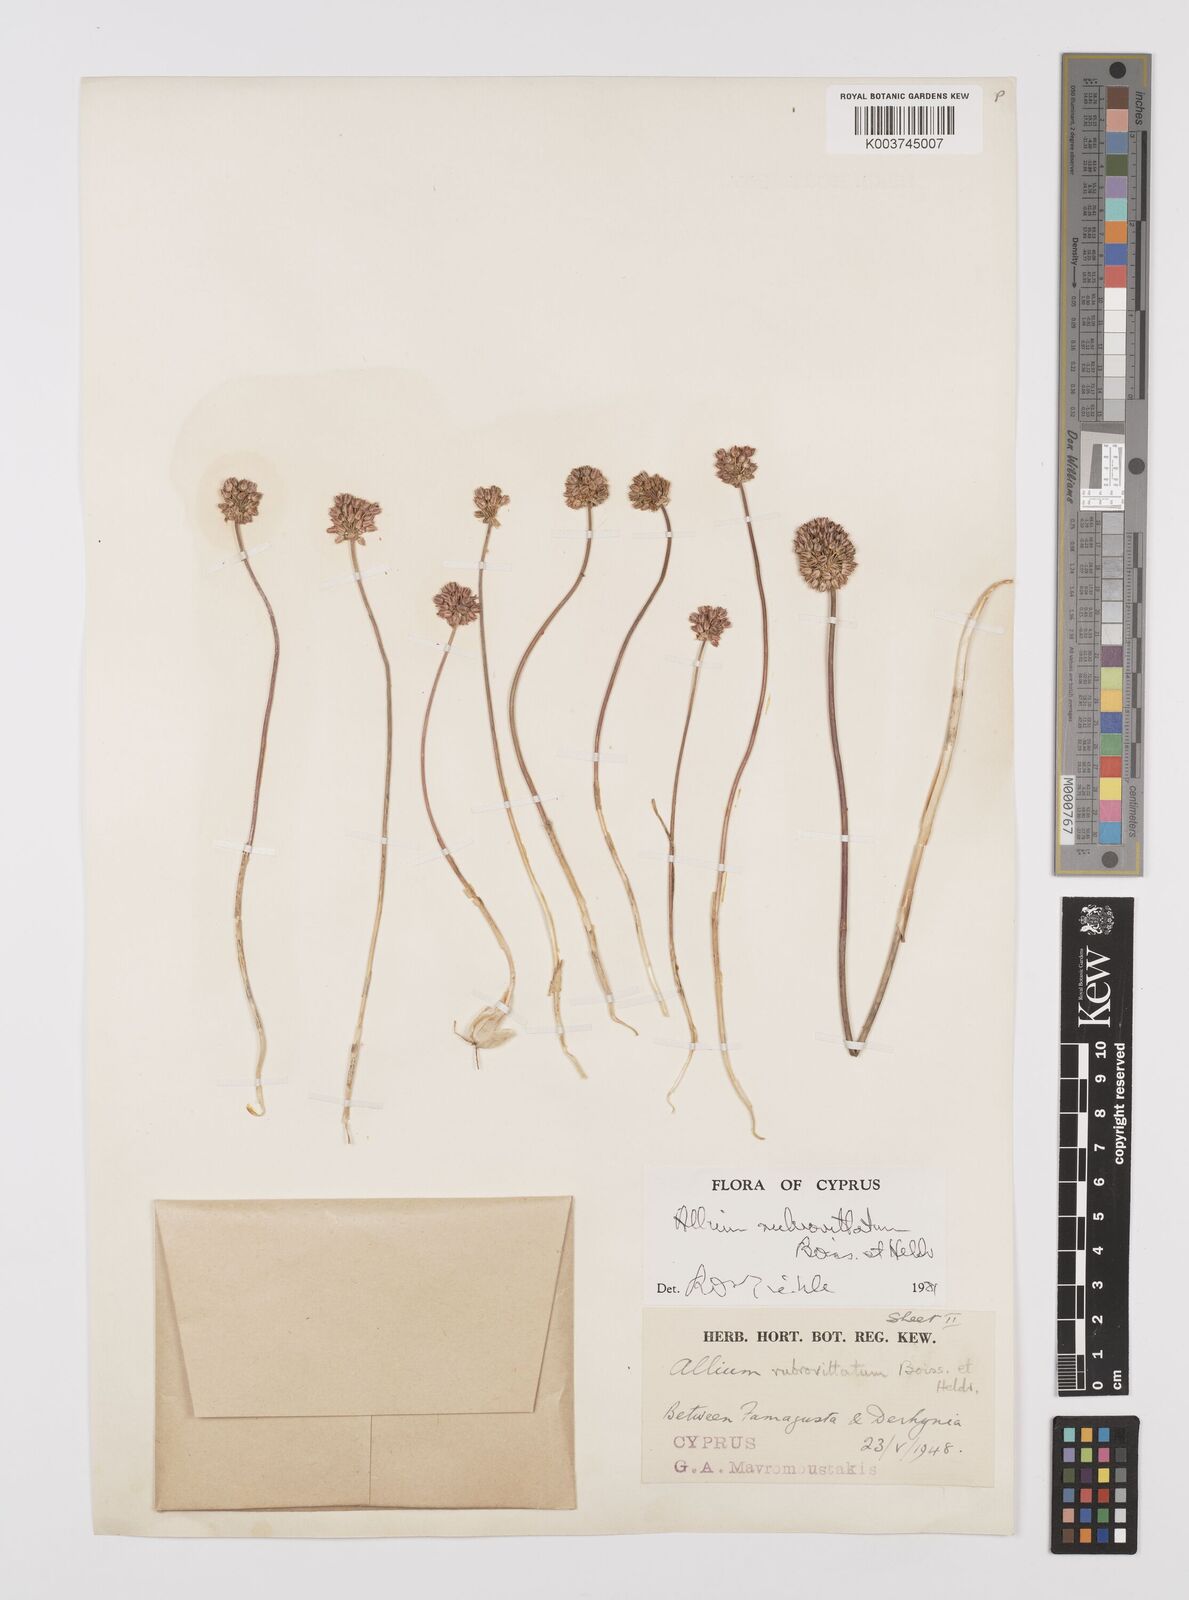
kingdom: Plantae
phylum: Tracheophyta
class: Liliopsida
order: Asparagales
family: Amaryllidaceae
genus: Allium
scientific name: Allium rubrovittatum
